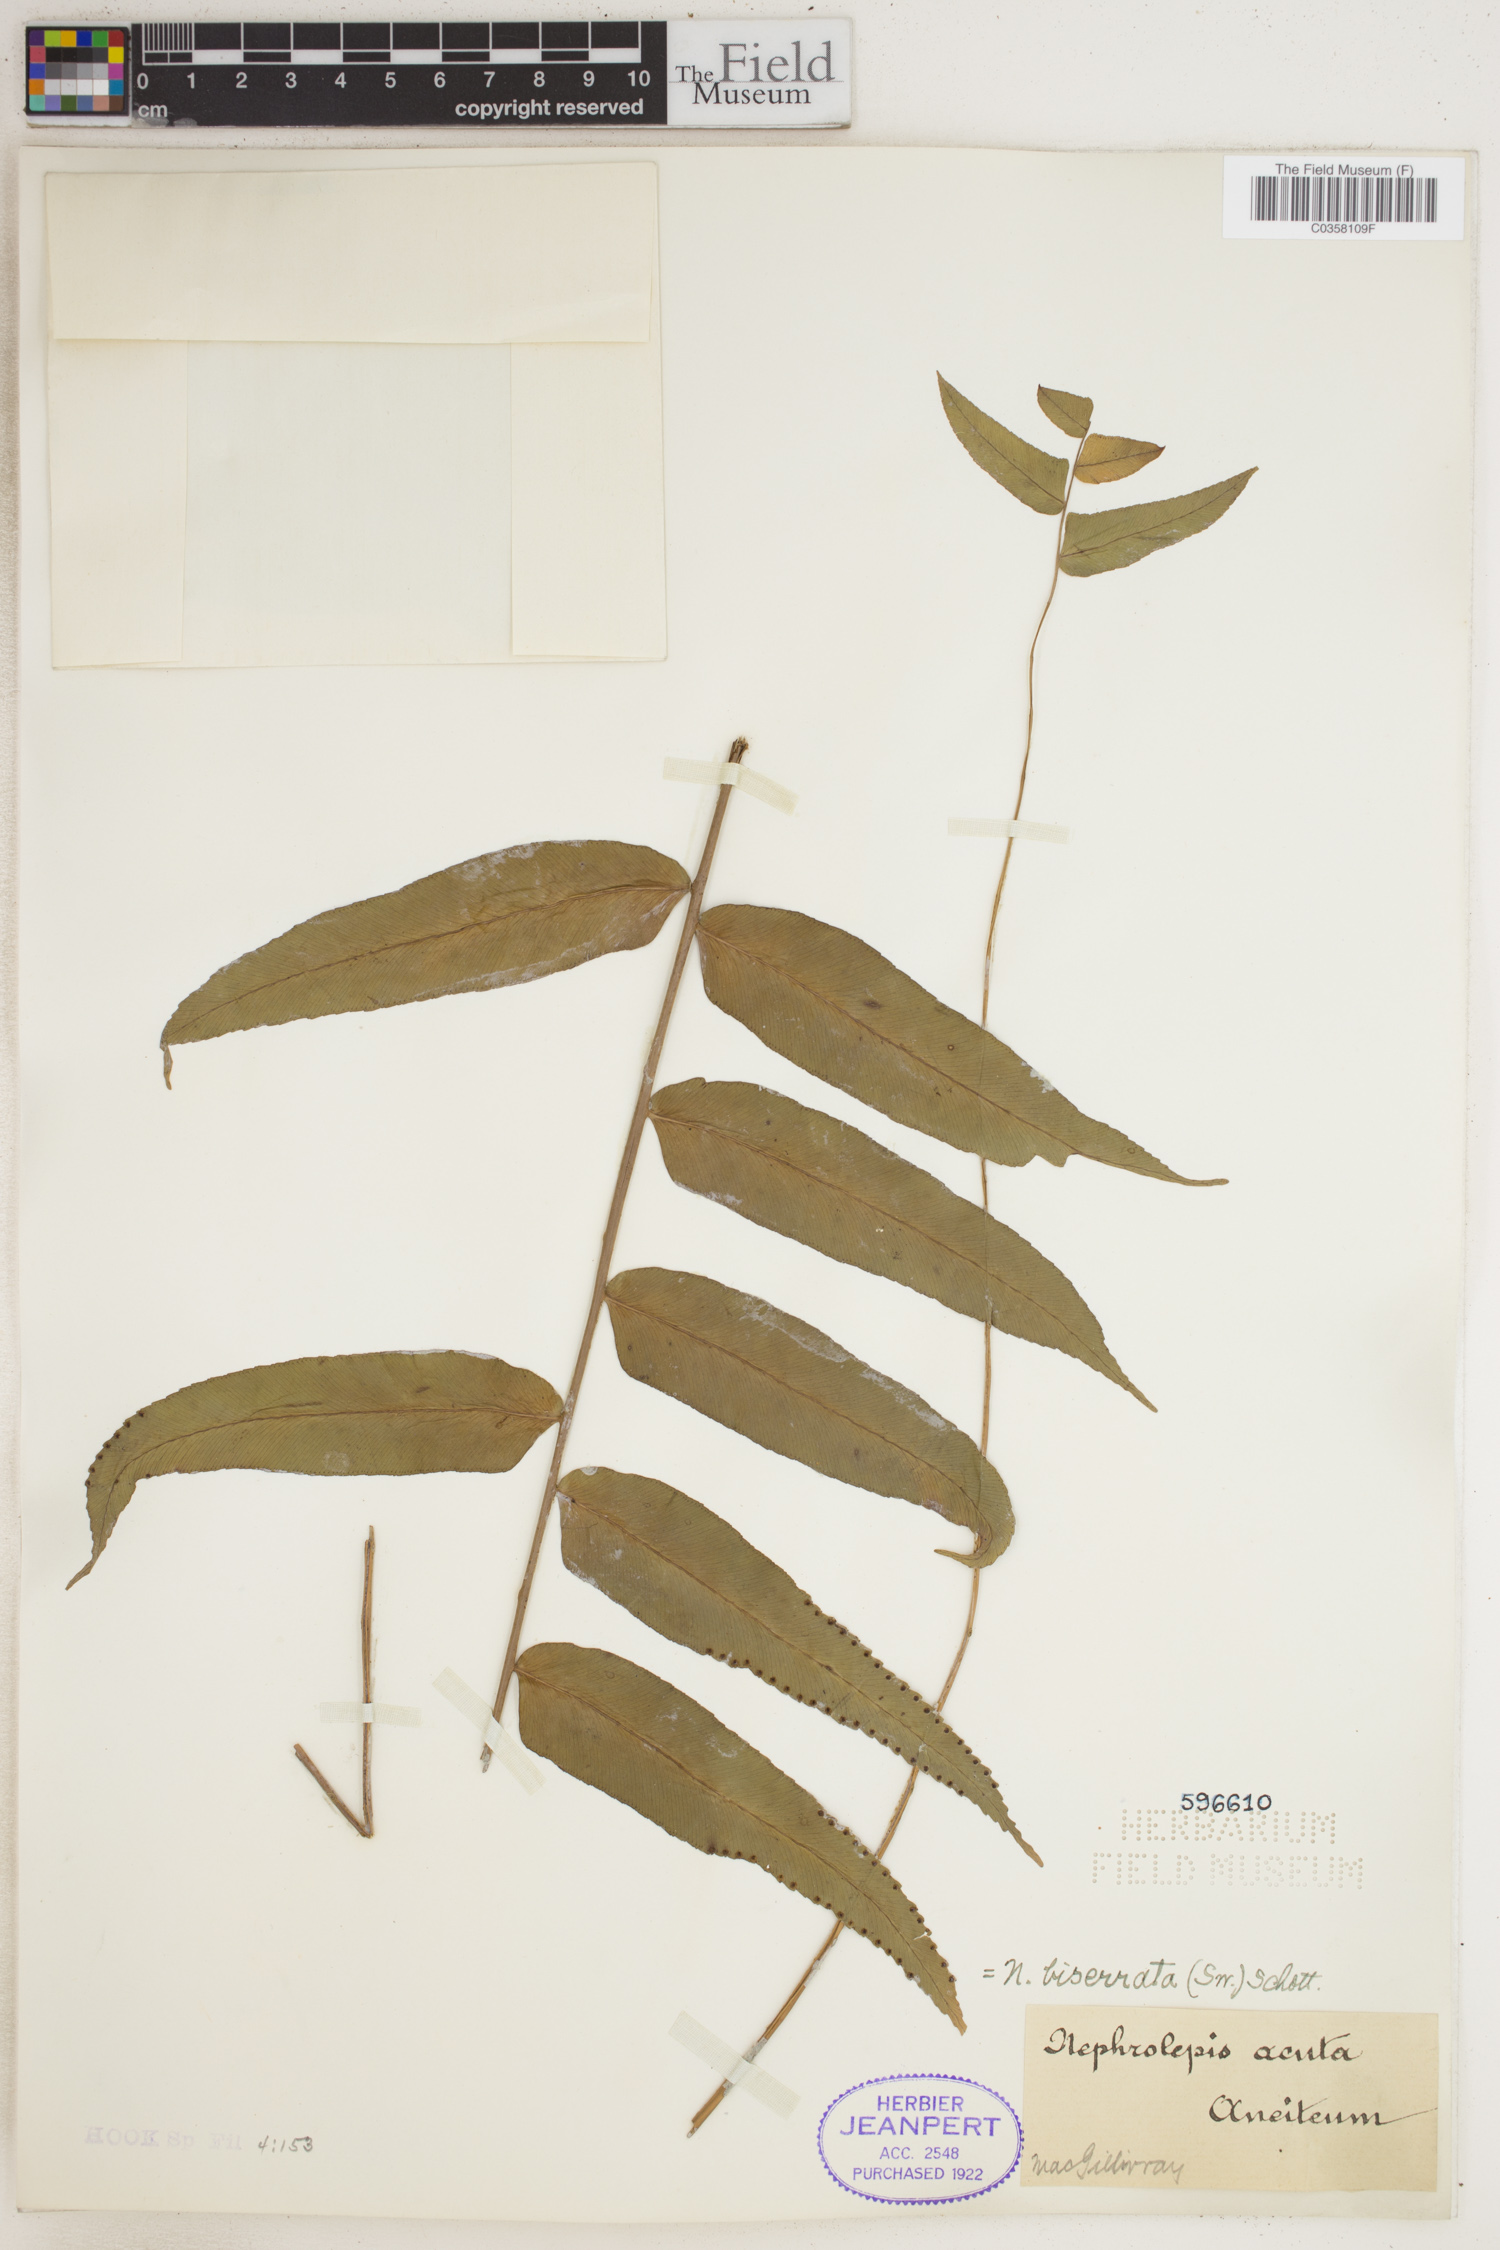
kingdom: Plantae
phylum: Tracheophyta
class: Polypodiopsida
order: Polypodiales
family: Nephrolepidaceae
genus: Nephrolepis
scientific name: Nephrolepis biserrata
